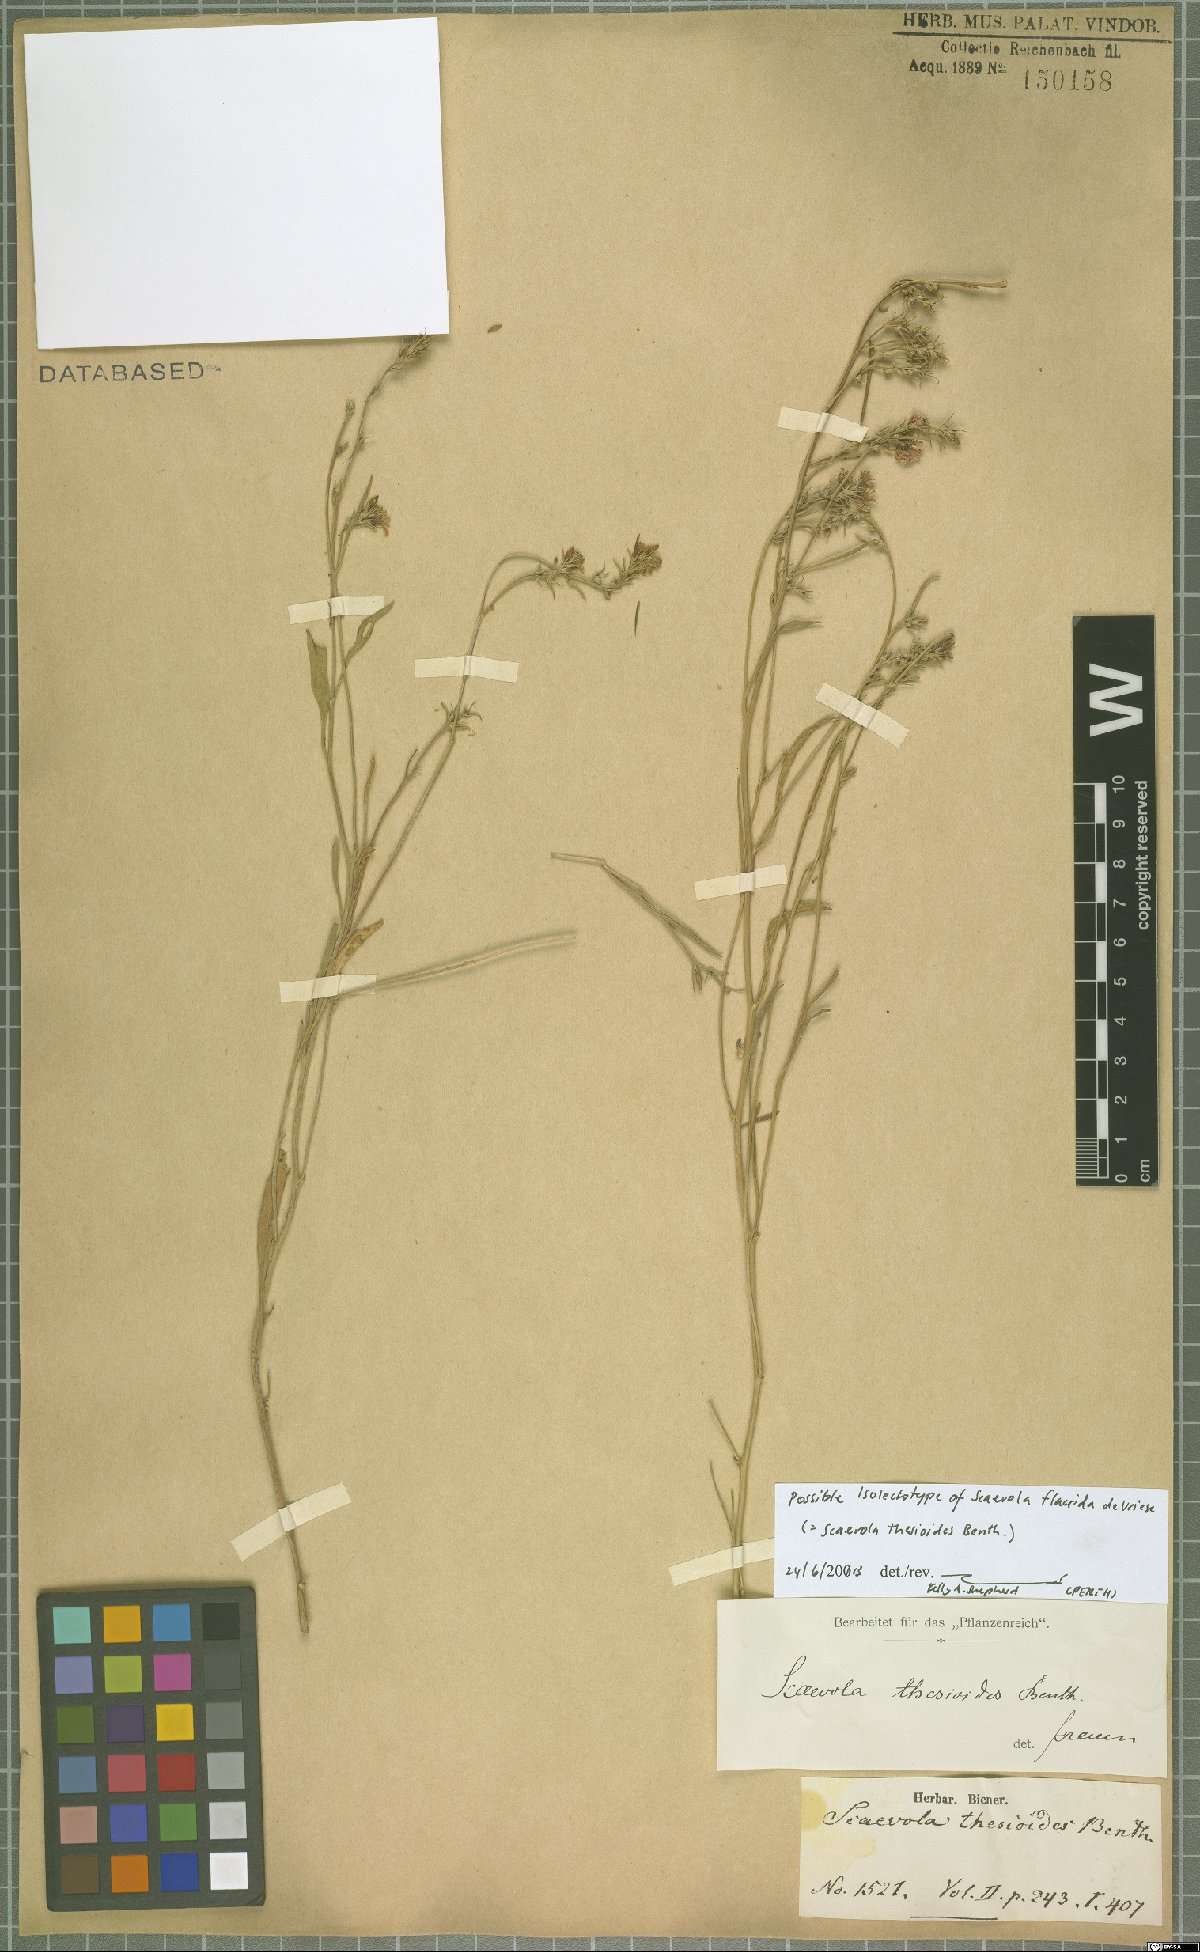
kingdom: Plantae
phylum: Tracheophyta
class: Magnoliopsida
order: Asterales
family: Goodeniaceae
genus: Scaevola
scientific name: Scaevola thesioides
